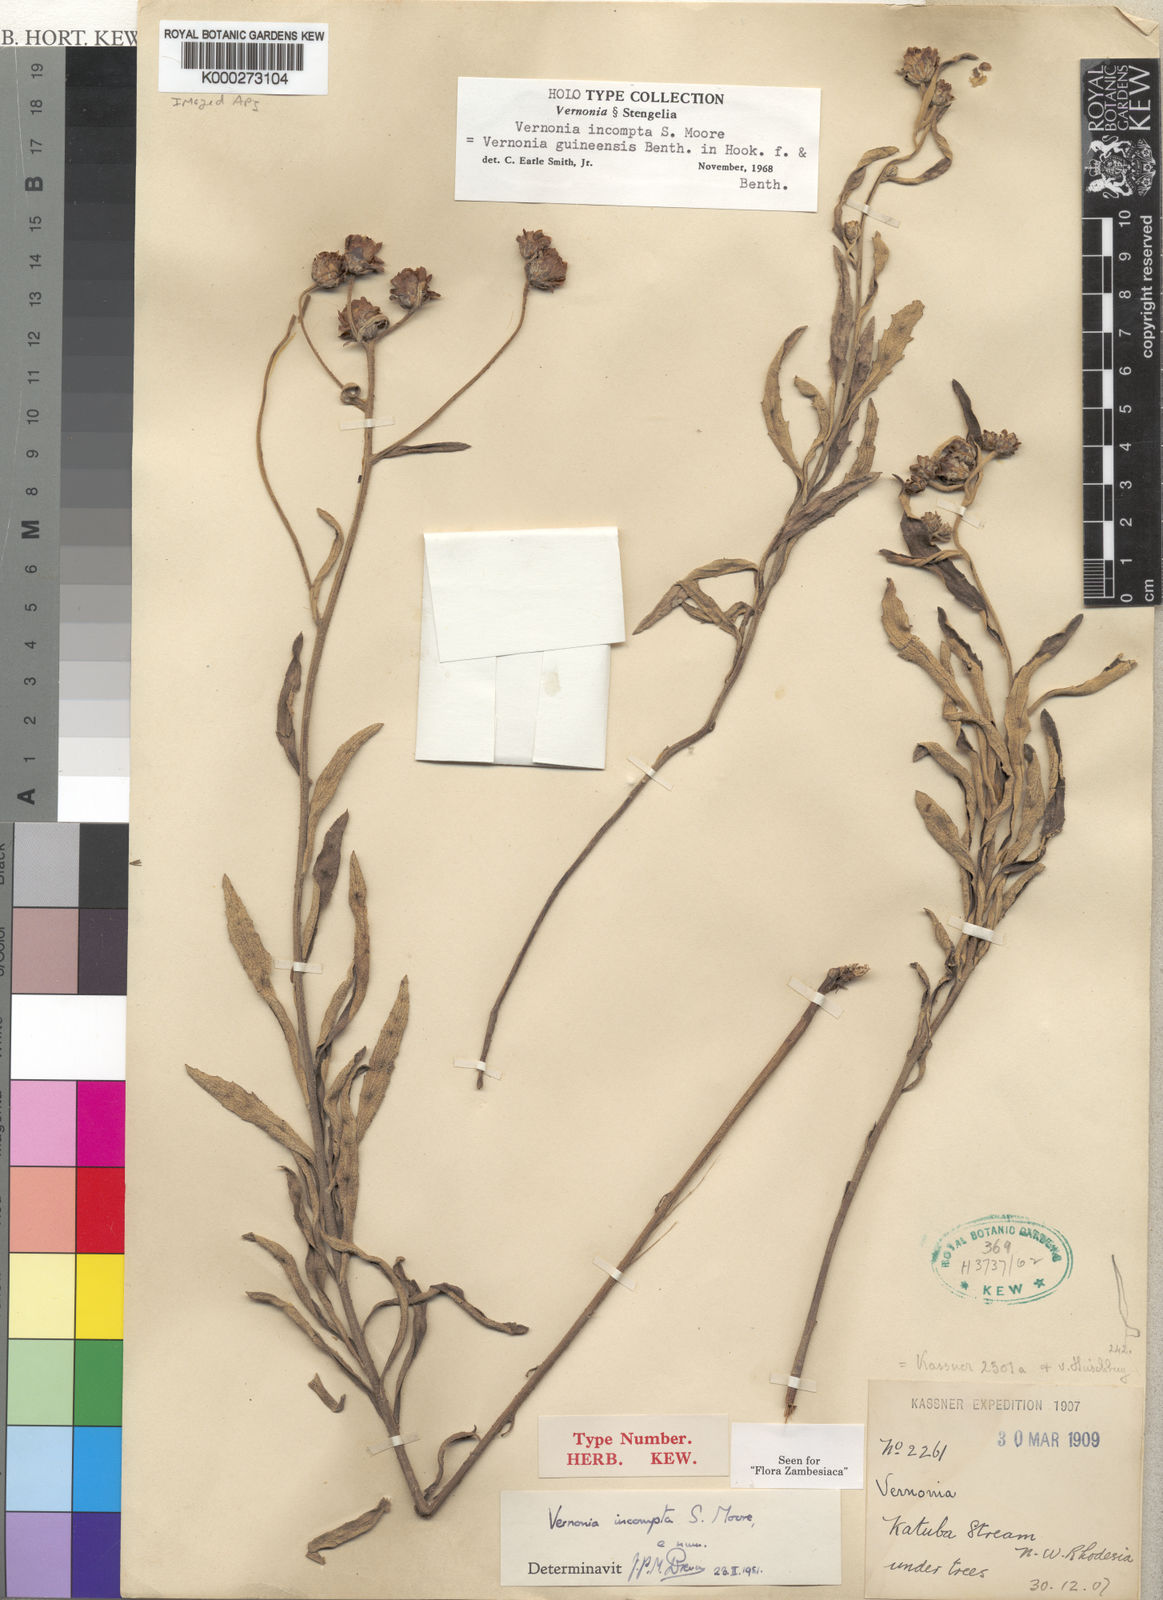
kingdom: Plantae
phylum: Tracheophyta
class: Magnoliopsida
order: Asterales
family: Asteraceae
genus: Baccharoides
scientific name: Baccharoides incompta
